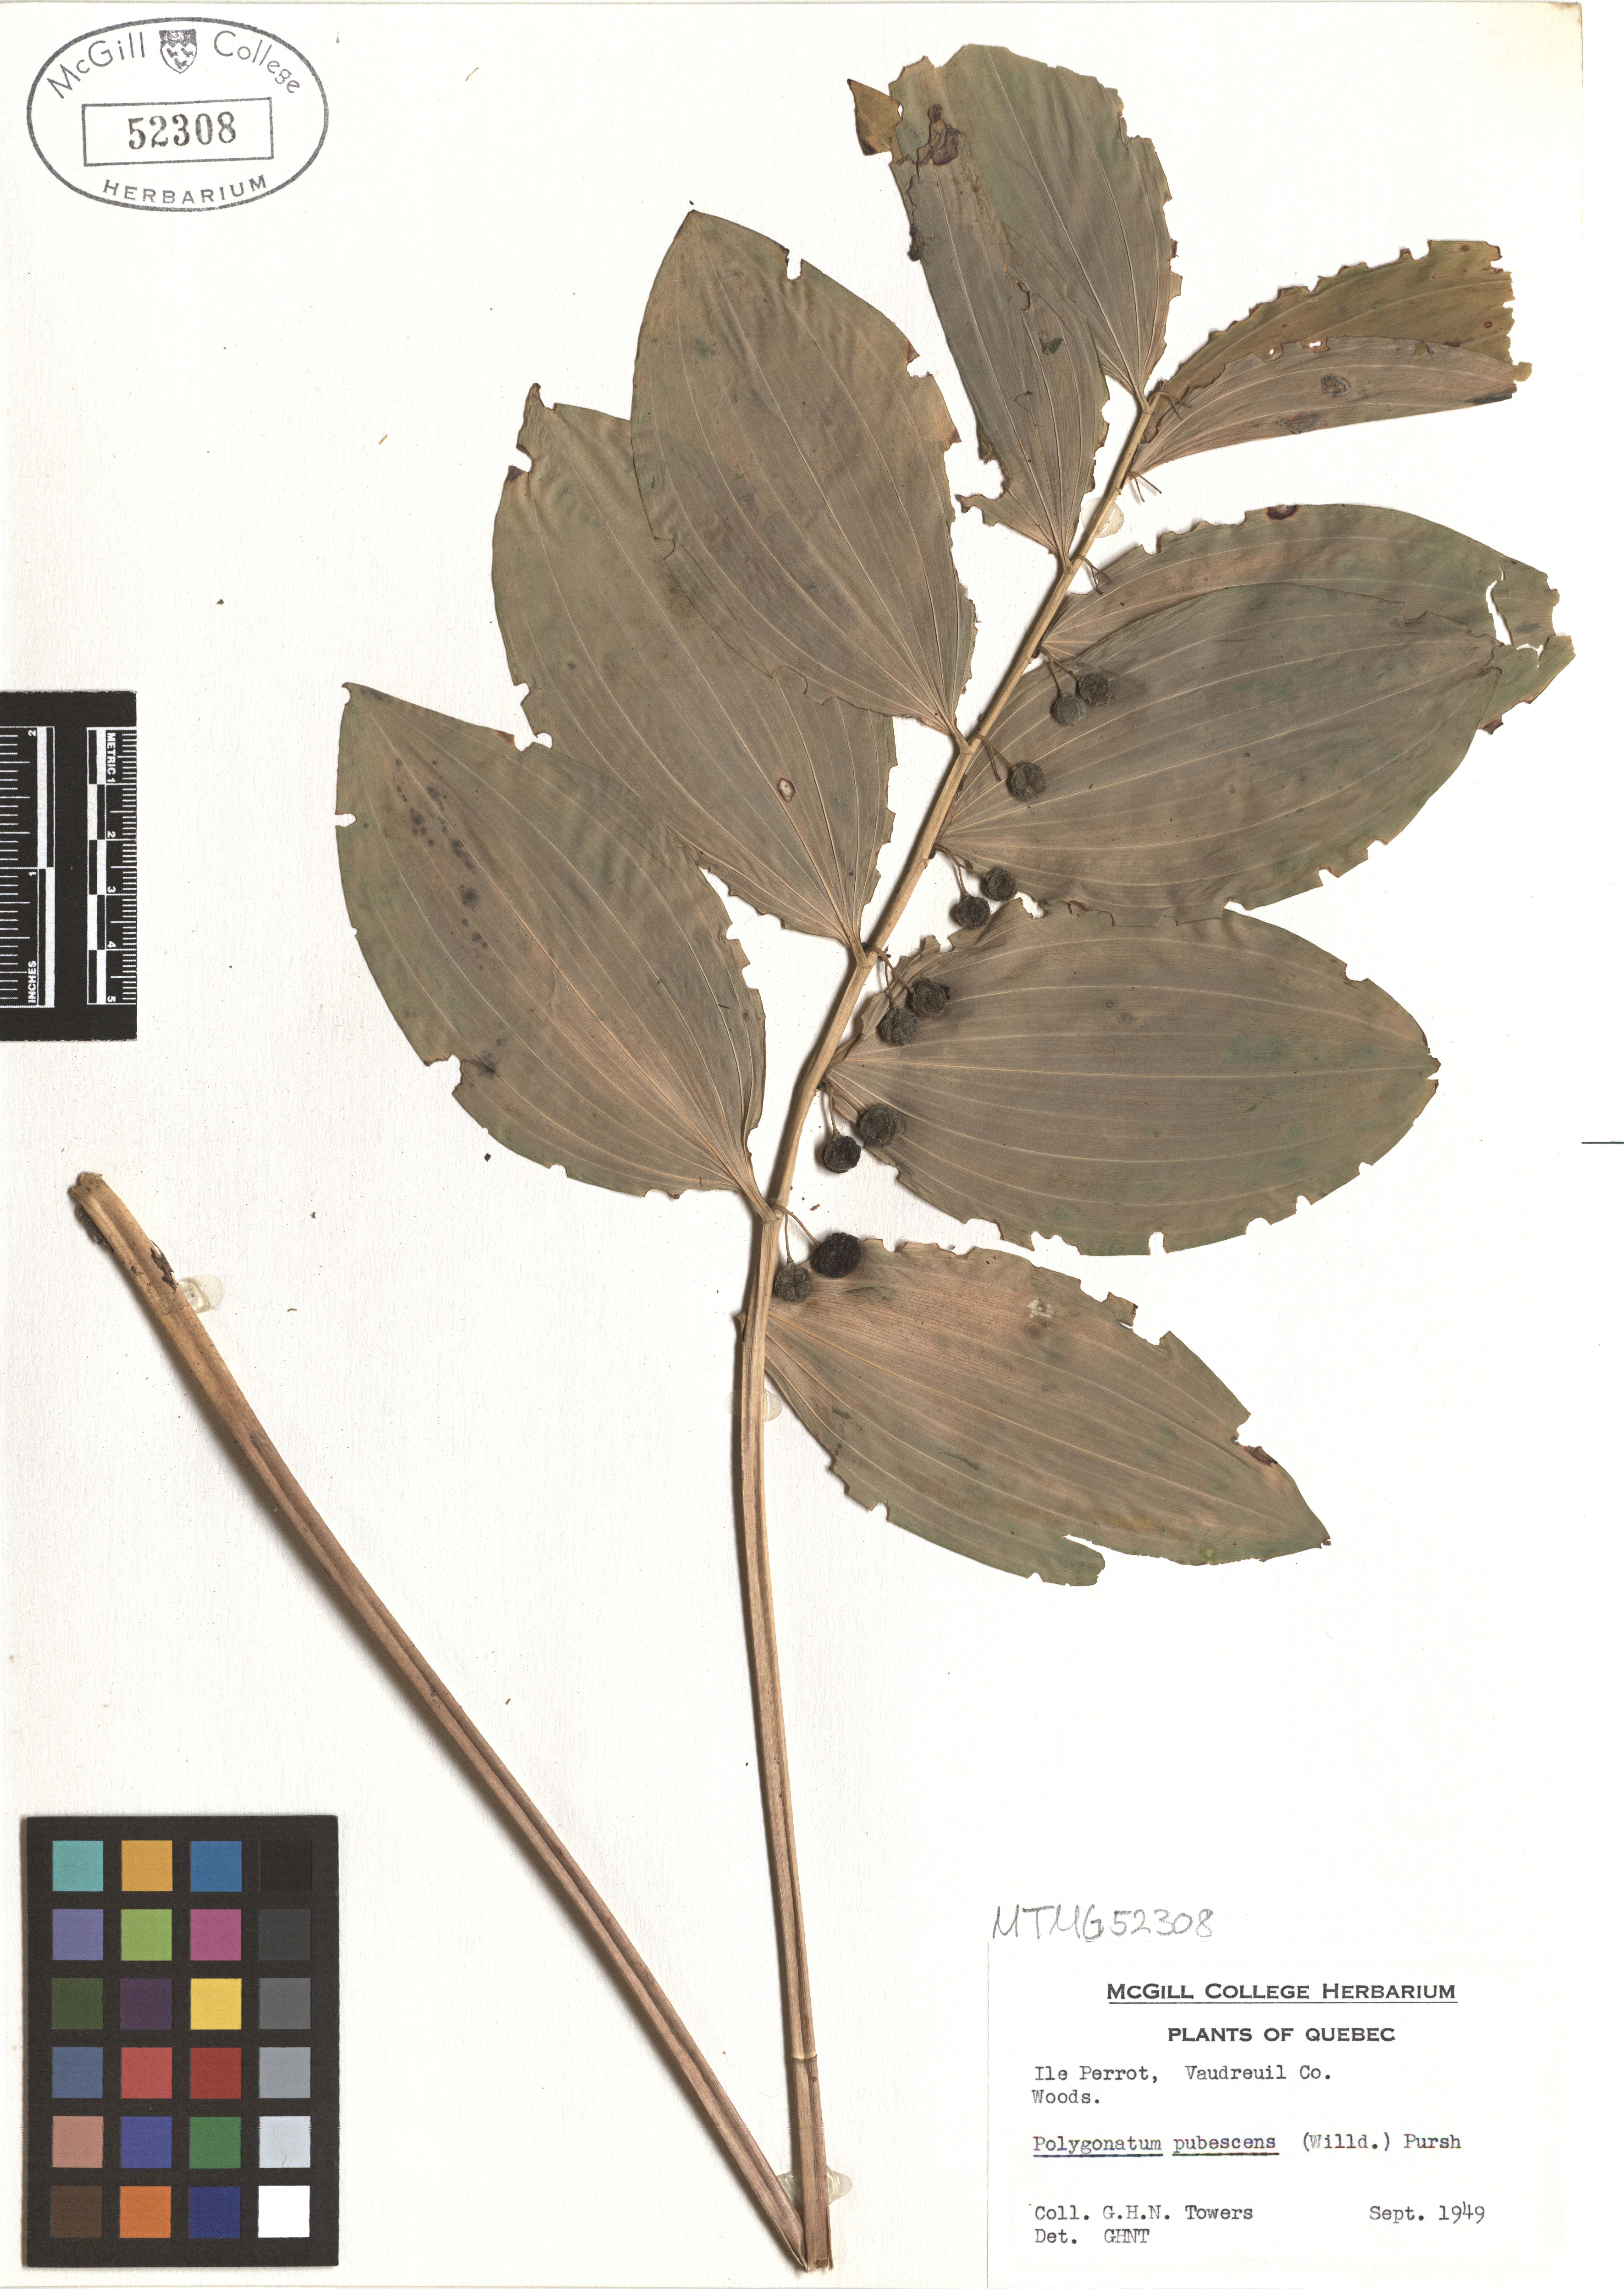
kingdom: Plantae
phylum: Tracheophyta
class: Liliopsida
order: Asparagales
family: Asparagaceae
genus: Polygonatum
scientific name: Polygonatum pubescens
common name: Downy solomon's seal
